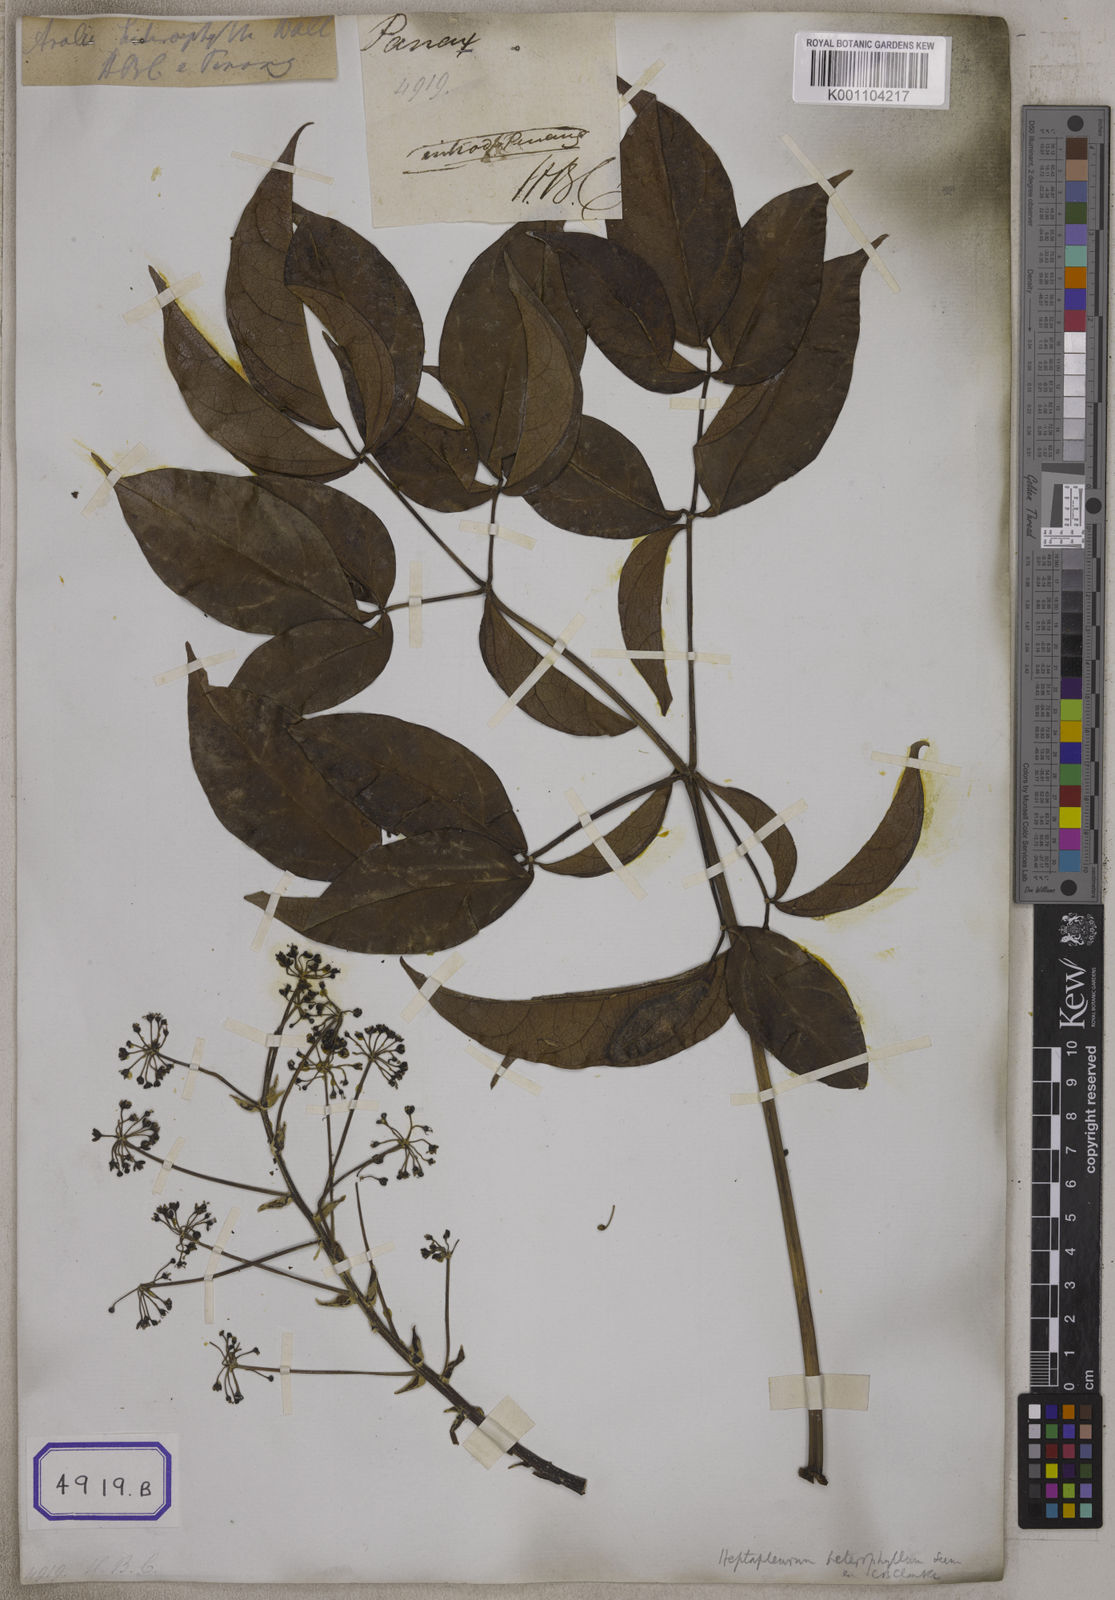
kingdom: Plantae
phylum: Tracheophyta
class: Magnoliopsida
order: Apiales
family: Araliaceae
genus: Hedera
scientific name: Hedera
